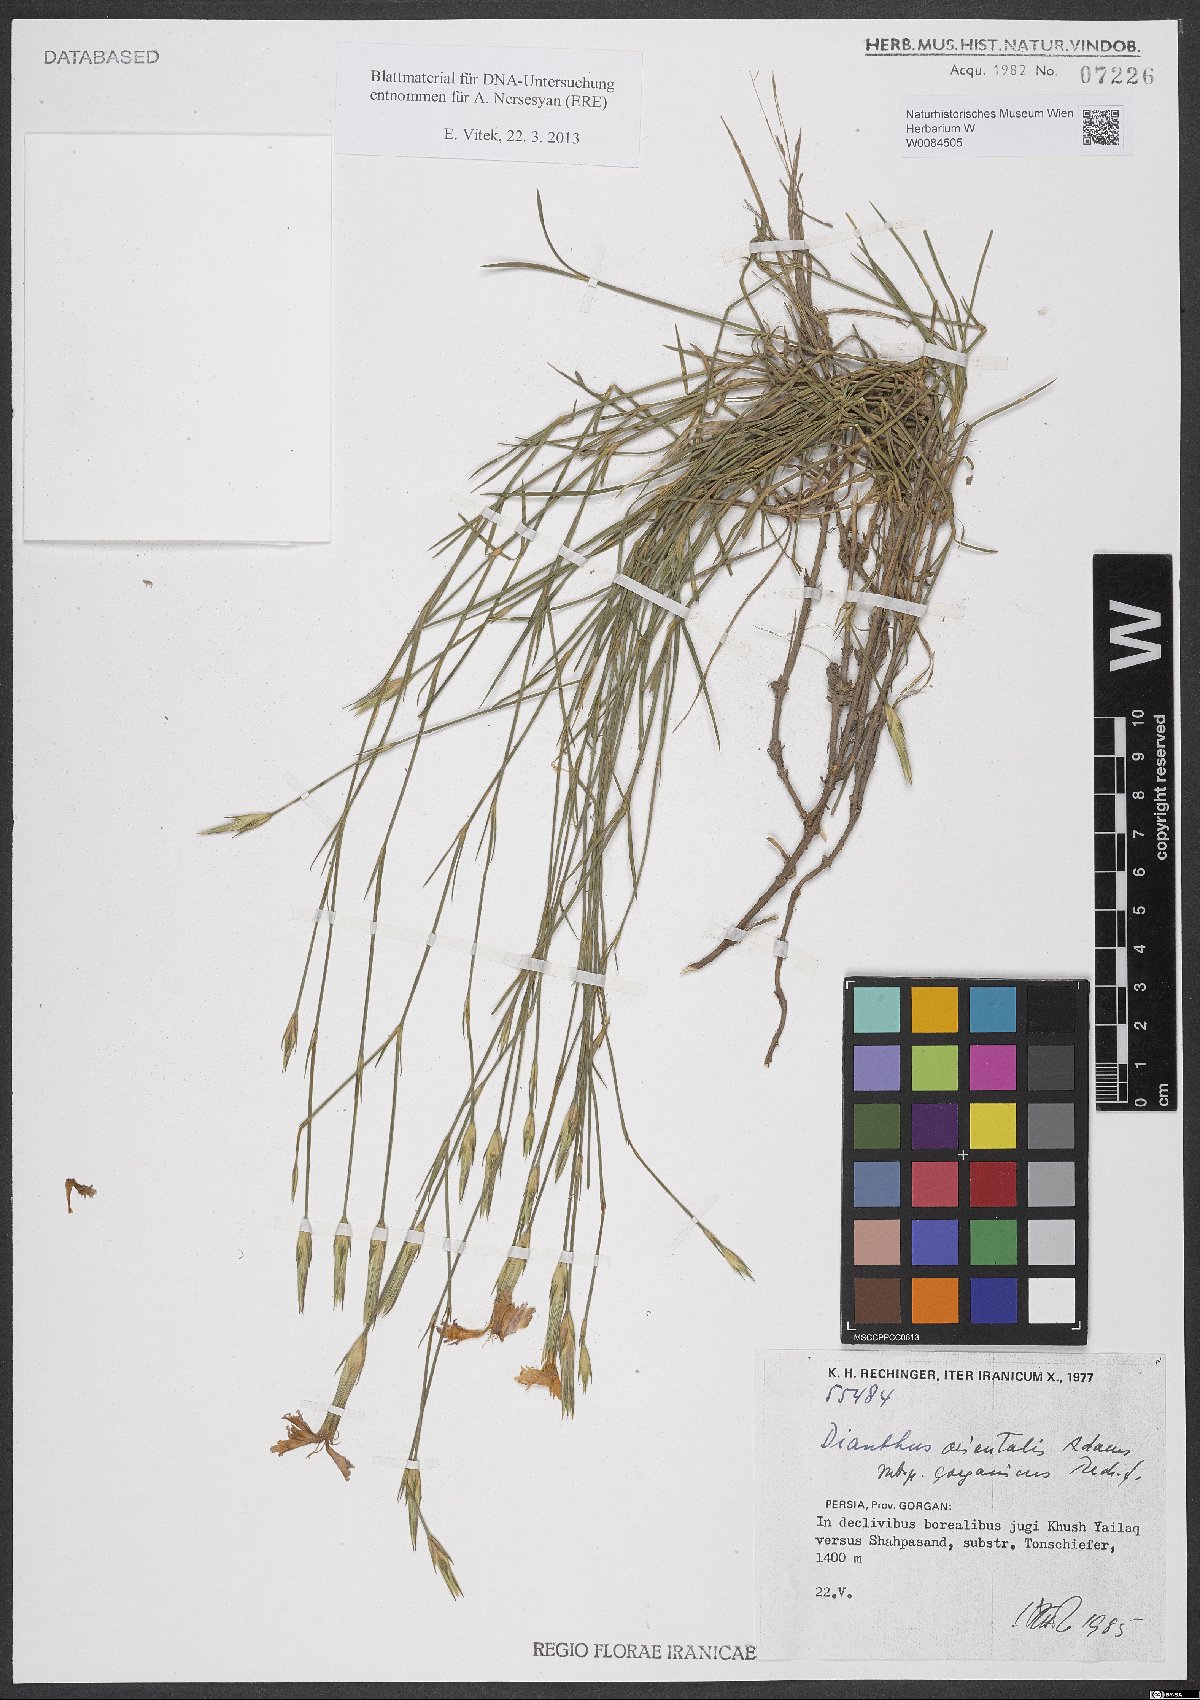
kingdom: Plantae
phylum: Tracheophyta
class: Magnoliopsida
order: Caryophyllales
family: Caryophyllaceae
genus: Dianthus
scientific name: Dianthus orientalis
